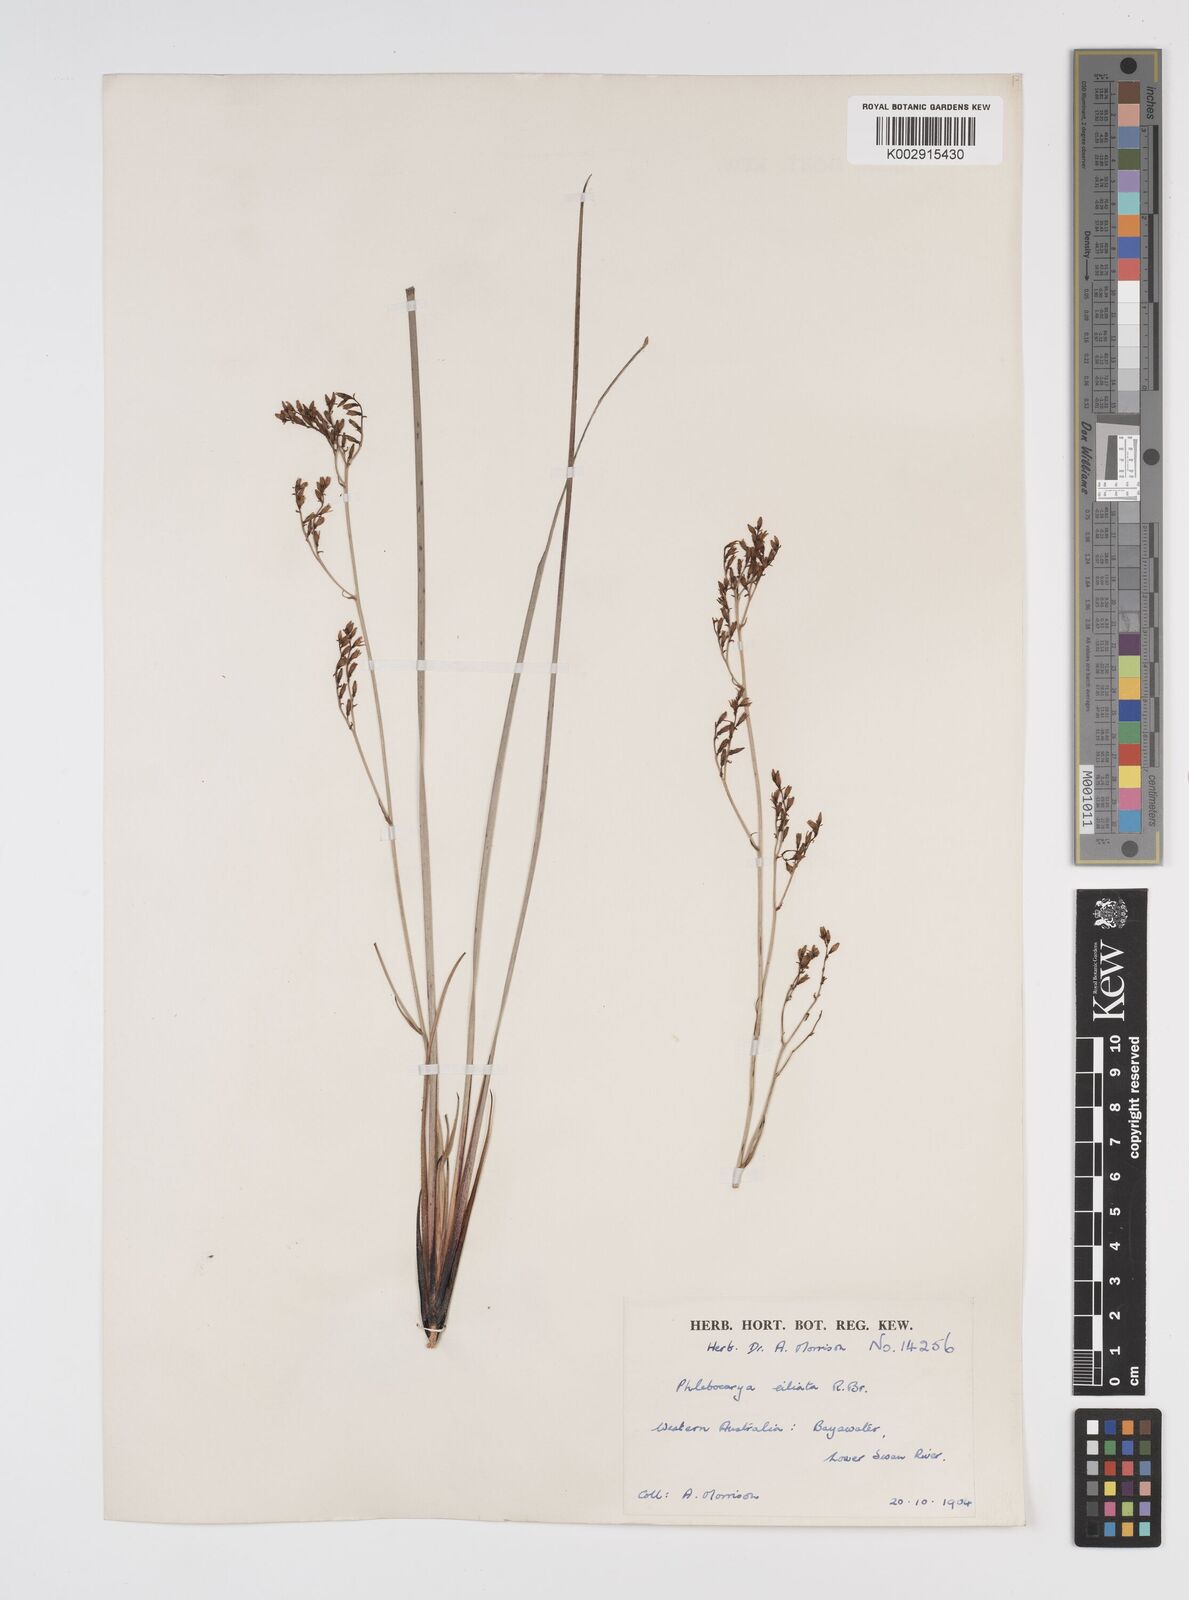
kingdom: Plantae
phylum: Tracheophyta
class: Liliopsida
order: Commelinales
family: Haemodoraceae
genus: Phlebocarya
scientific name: Phlebocarya ciliata
